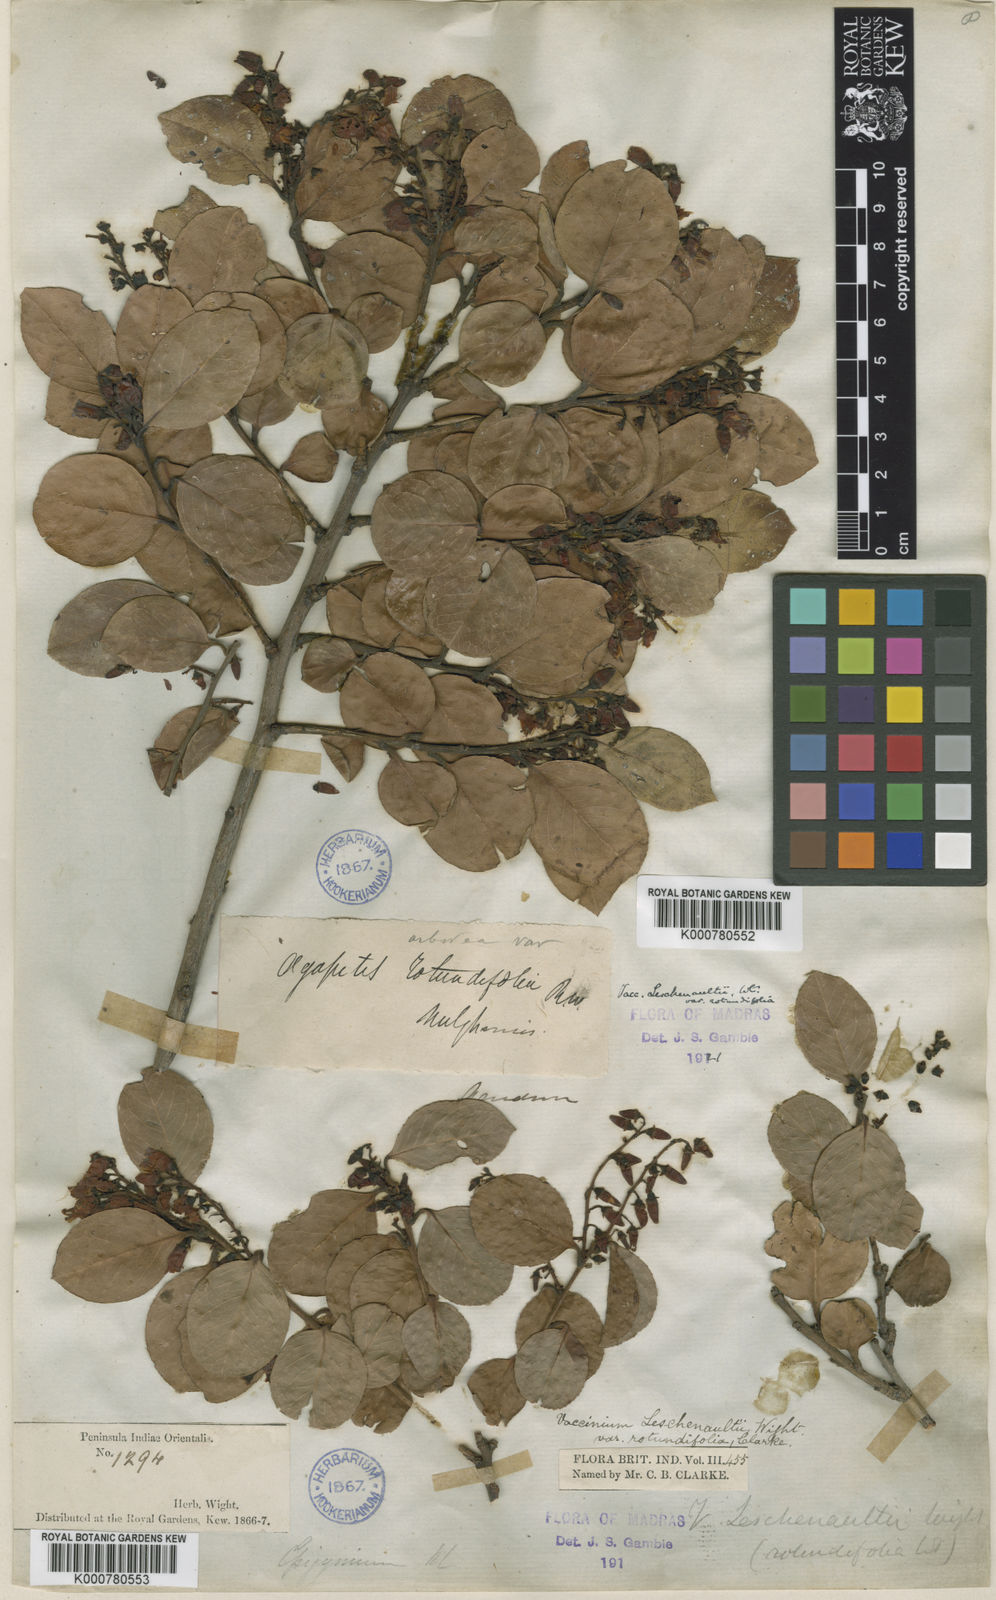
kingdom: Plantae
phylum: Tracheophyta
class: Magnoliopsida
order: Ericales
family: Ericaceae
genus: Vaccinium
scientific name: Vaccinium symplocifolium
